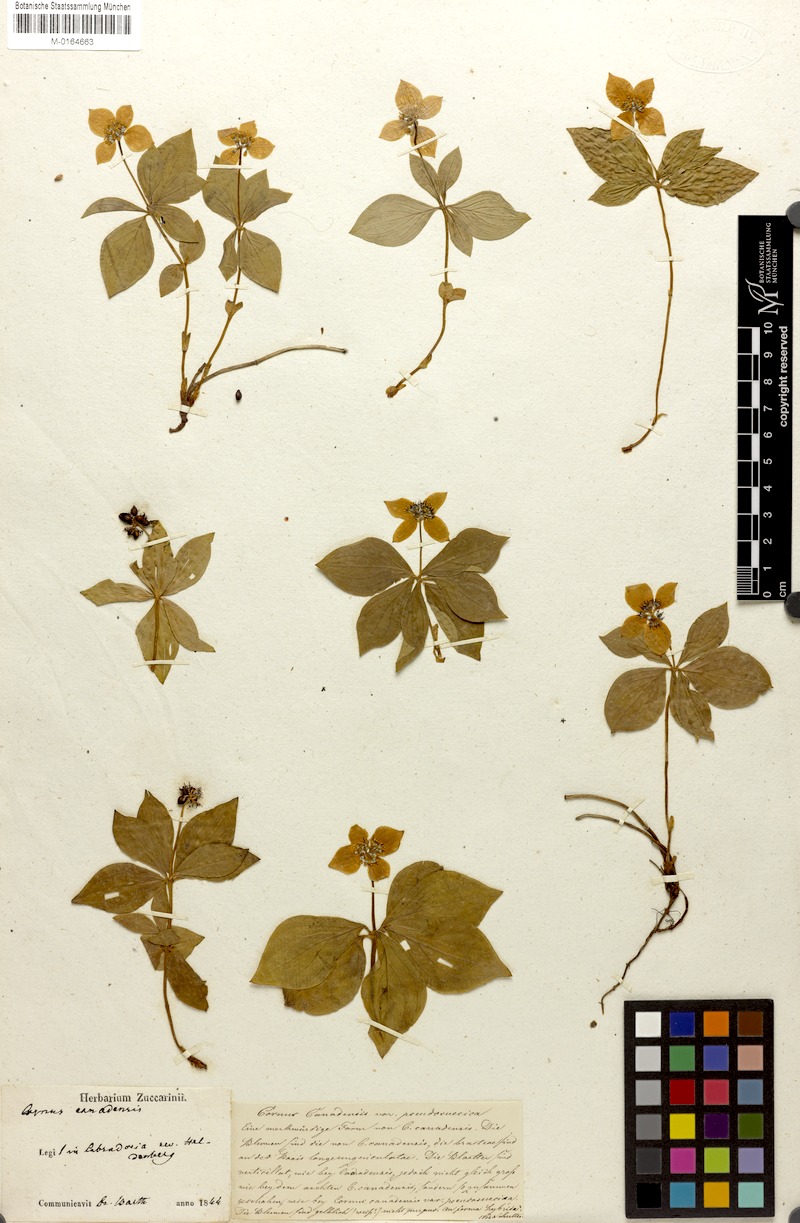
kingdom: Plantae
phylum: Tracheophyta
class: Magnoliopsida
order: Cornales
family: Cornaceae
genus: Cornus
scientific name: Cornus canadensis
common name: Creeping dogwood
